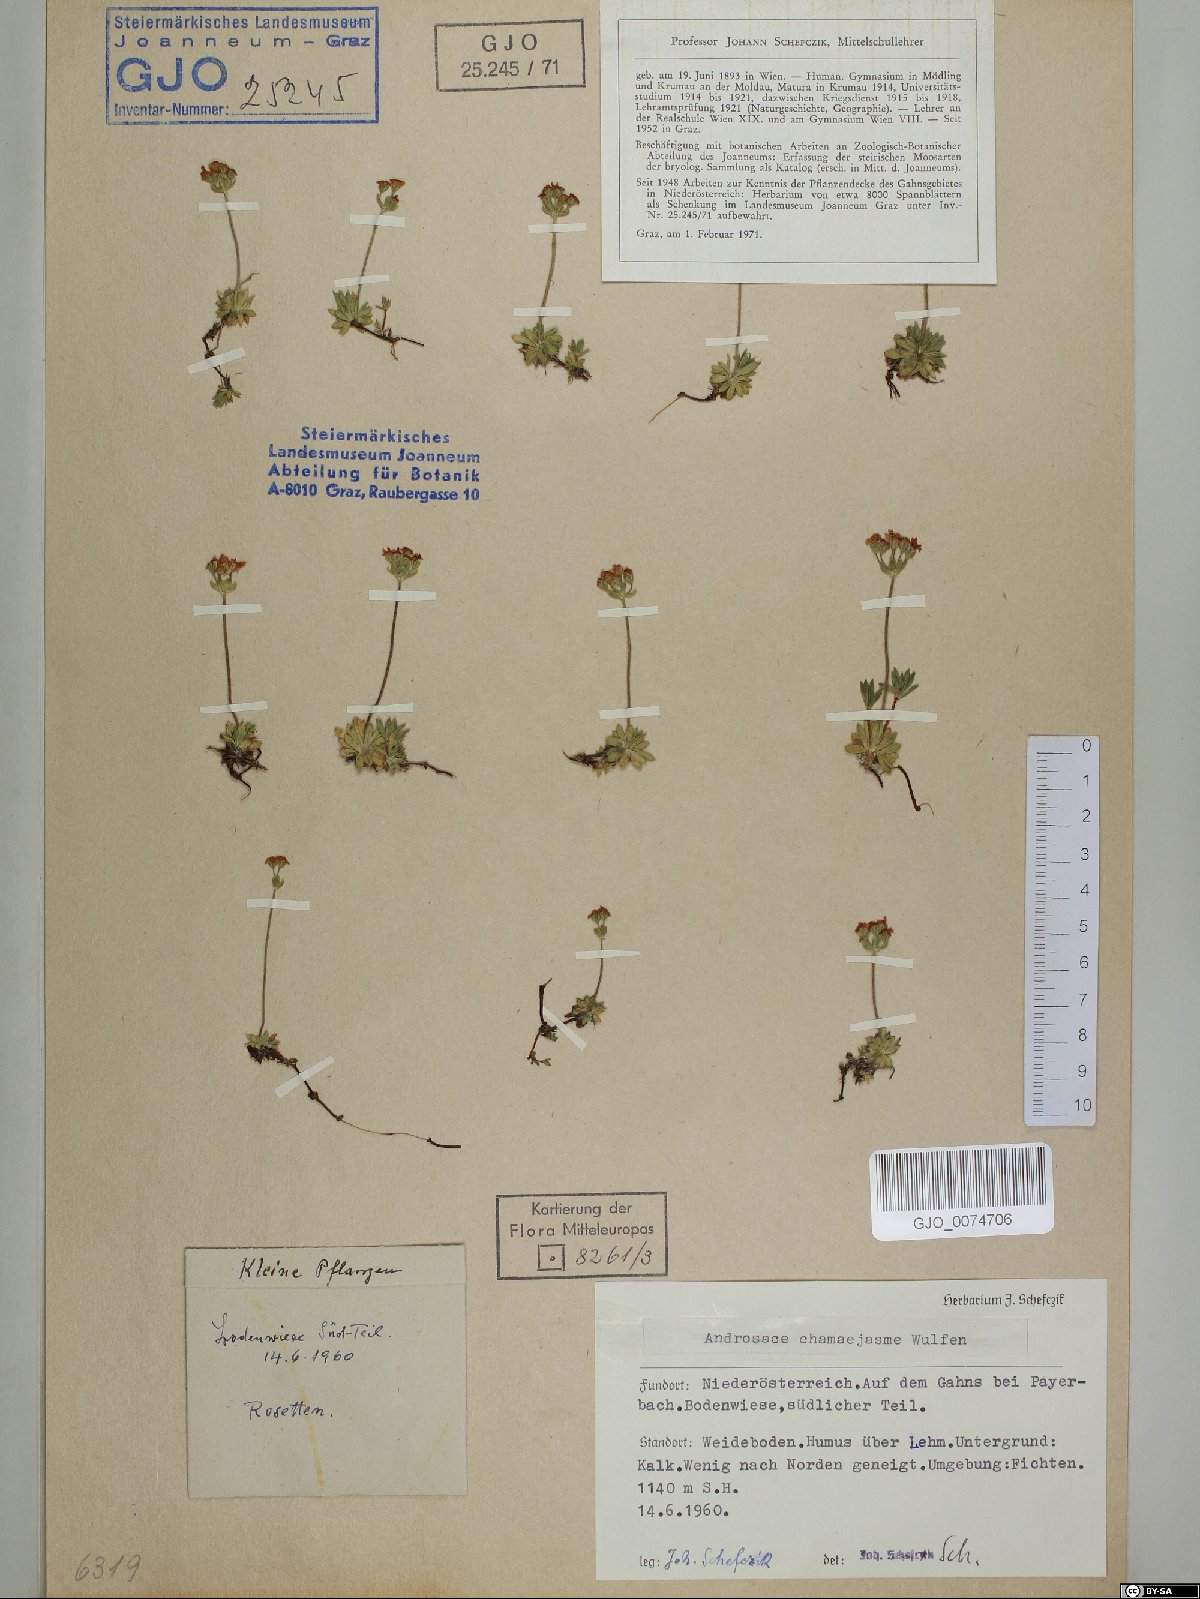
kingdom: Plantae
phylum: Tracheophyta
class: Magnoliopsida
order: Ericales
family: Primulaceae
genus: Androsace
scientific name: Androsace chamaejasme
